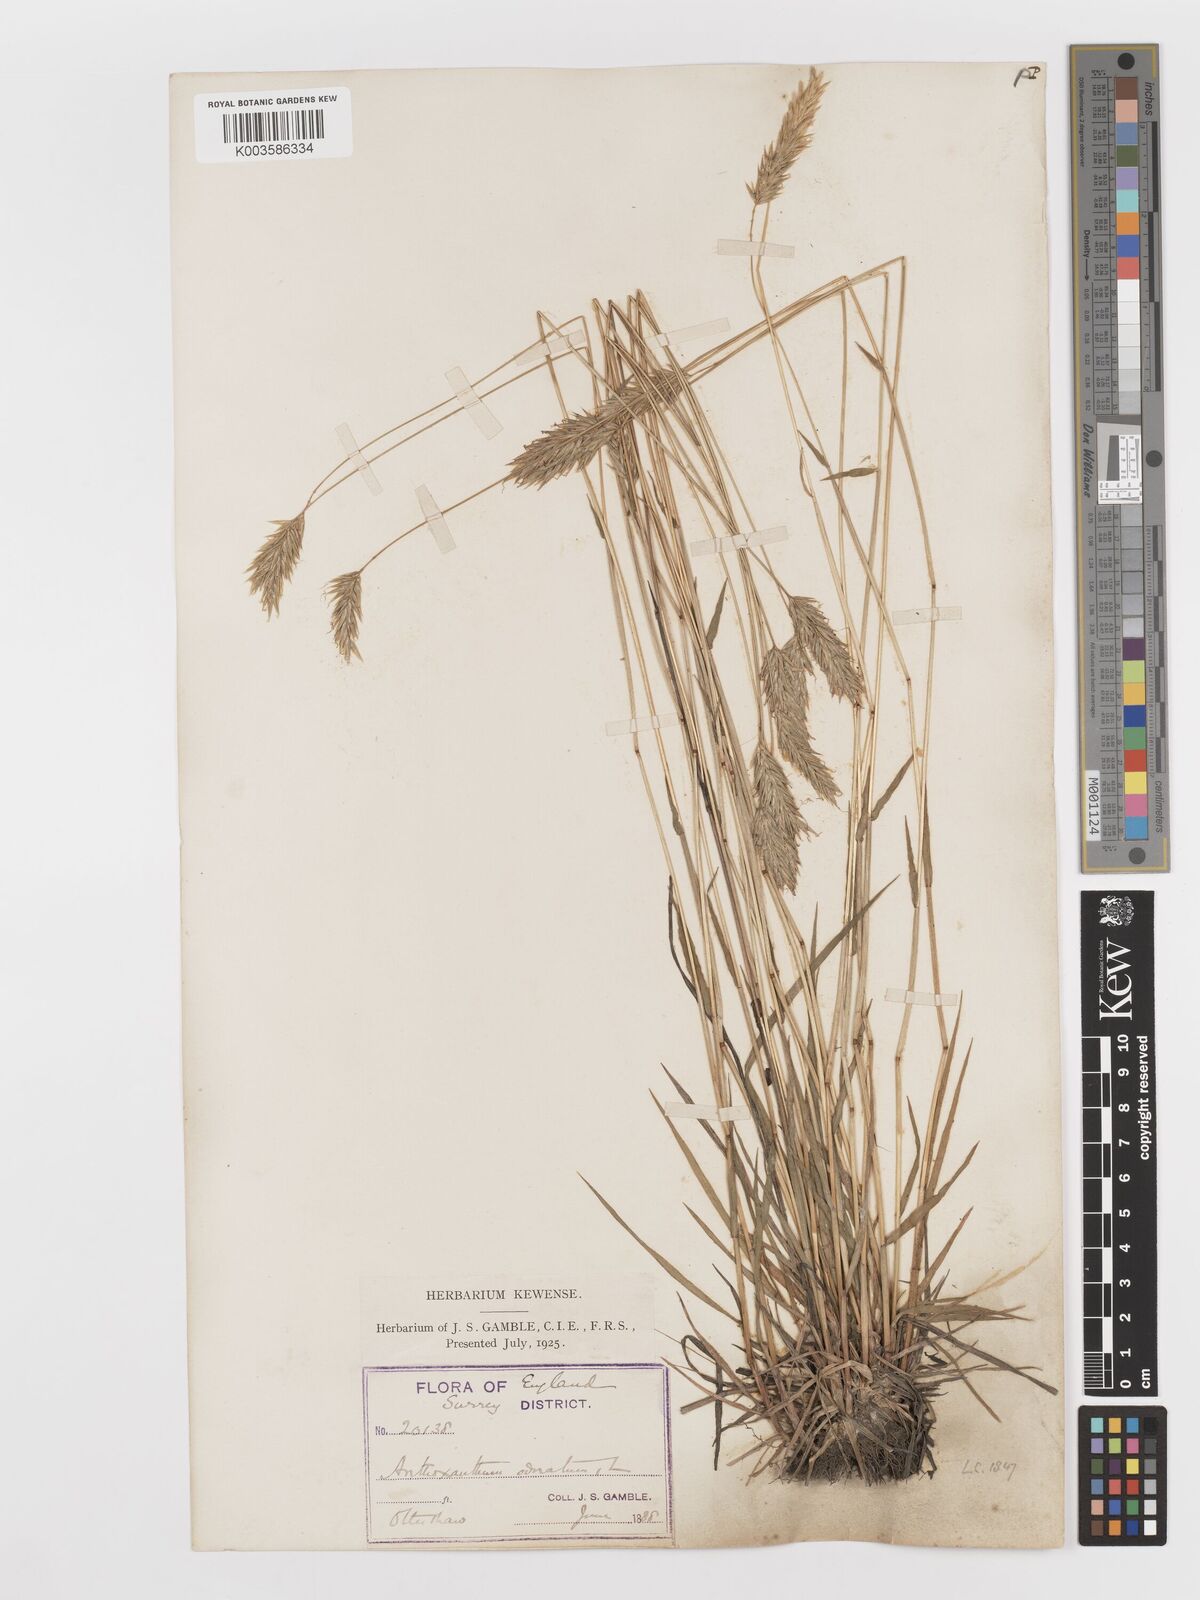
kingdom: Plantae
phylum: Tracheophyta
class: Liliopsida
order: Poales
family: Poaceae
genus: Anthoxanthum
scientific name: Anthoxanthum odoratum
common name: Sweet vernalgrass
